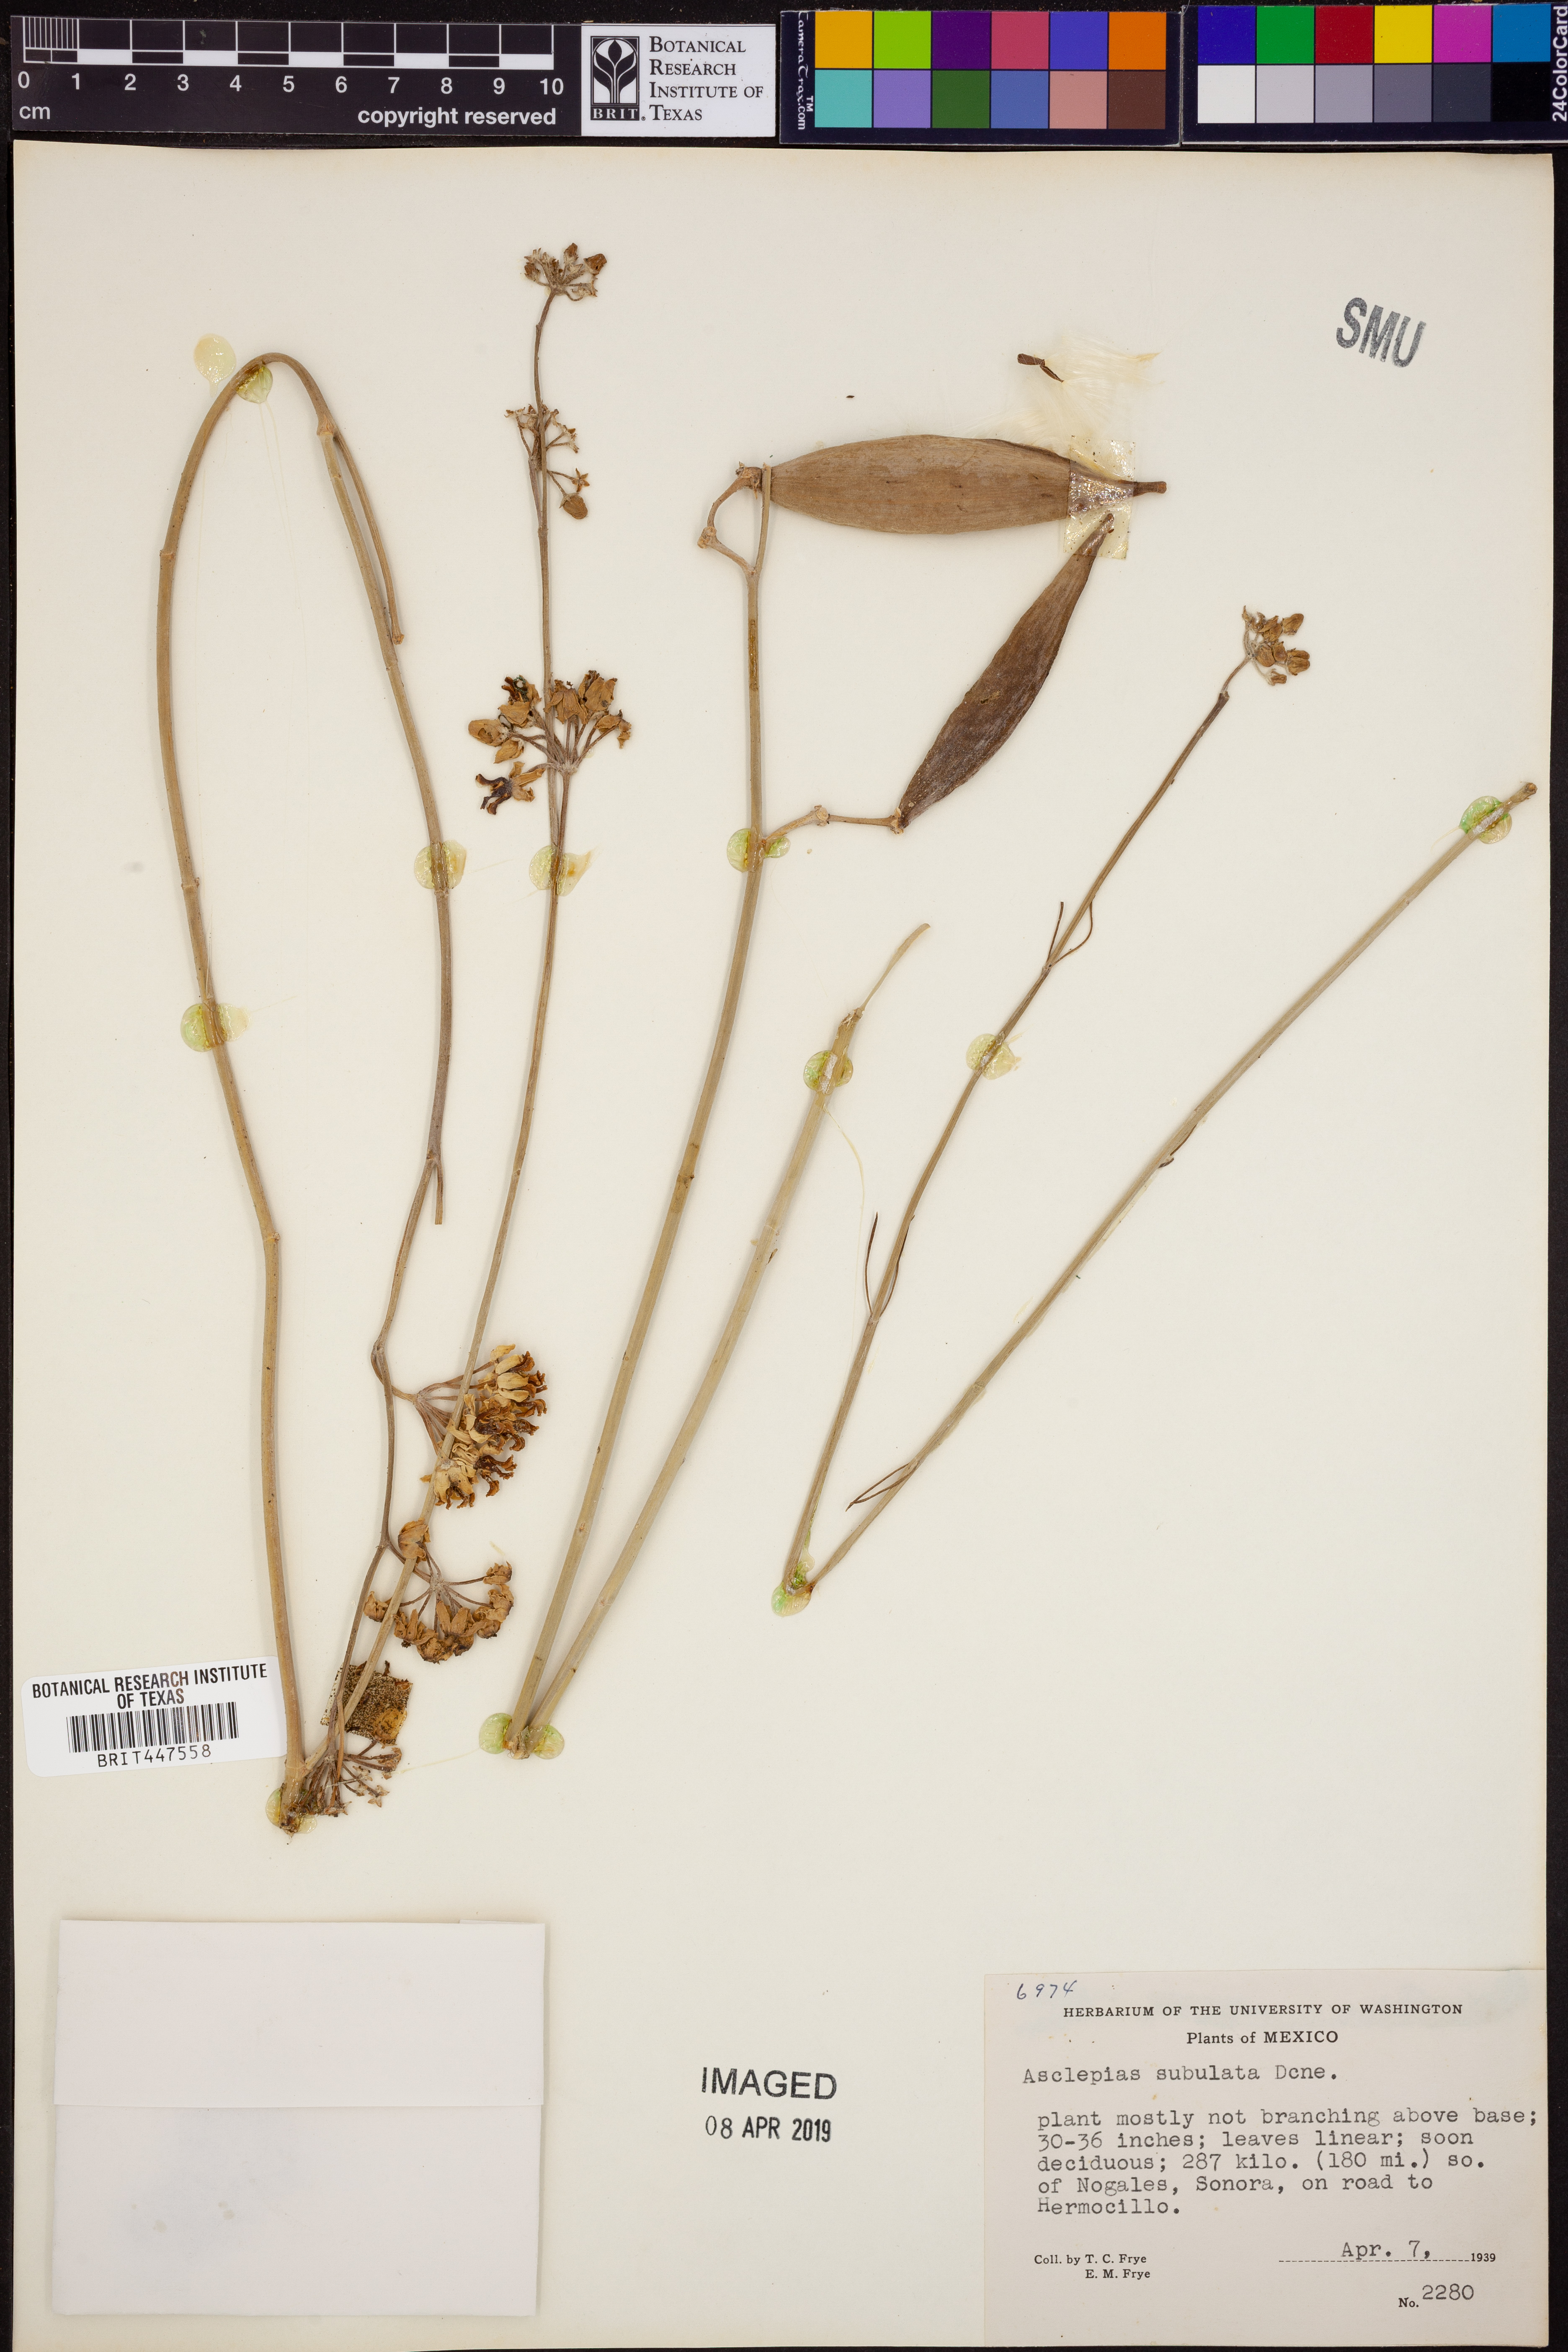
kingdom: Plantae
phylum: Tracheophyta
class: Magnoliopsida
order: Gentianales
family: Apocynaceae
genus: Asclepias
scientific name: Asclepias subulata
